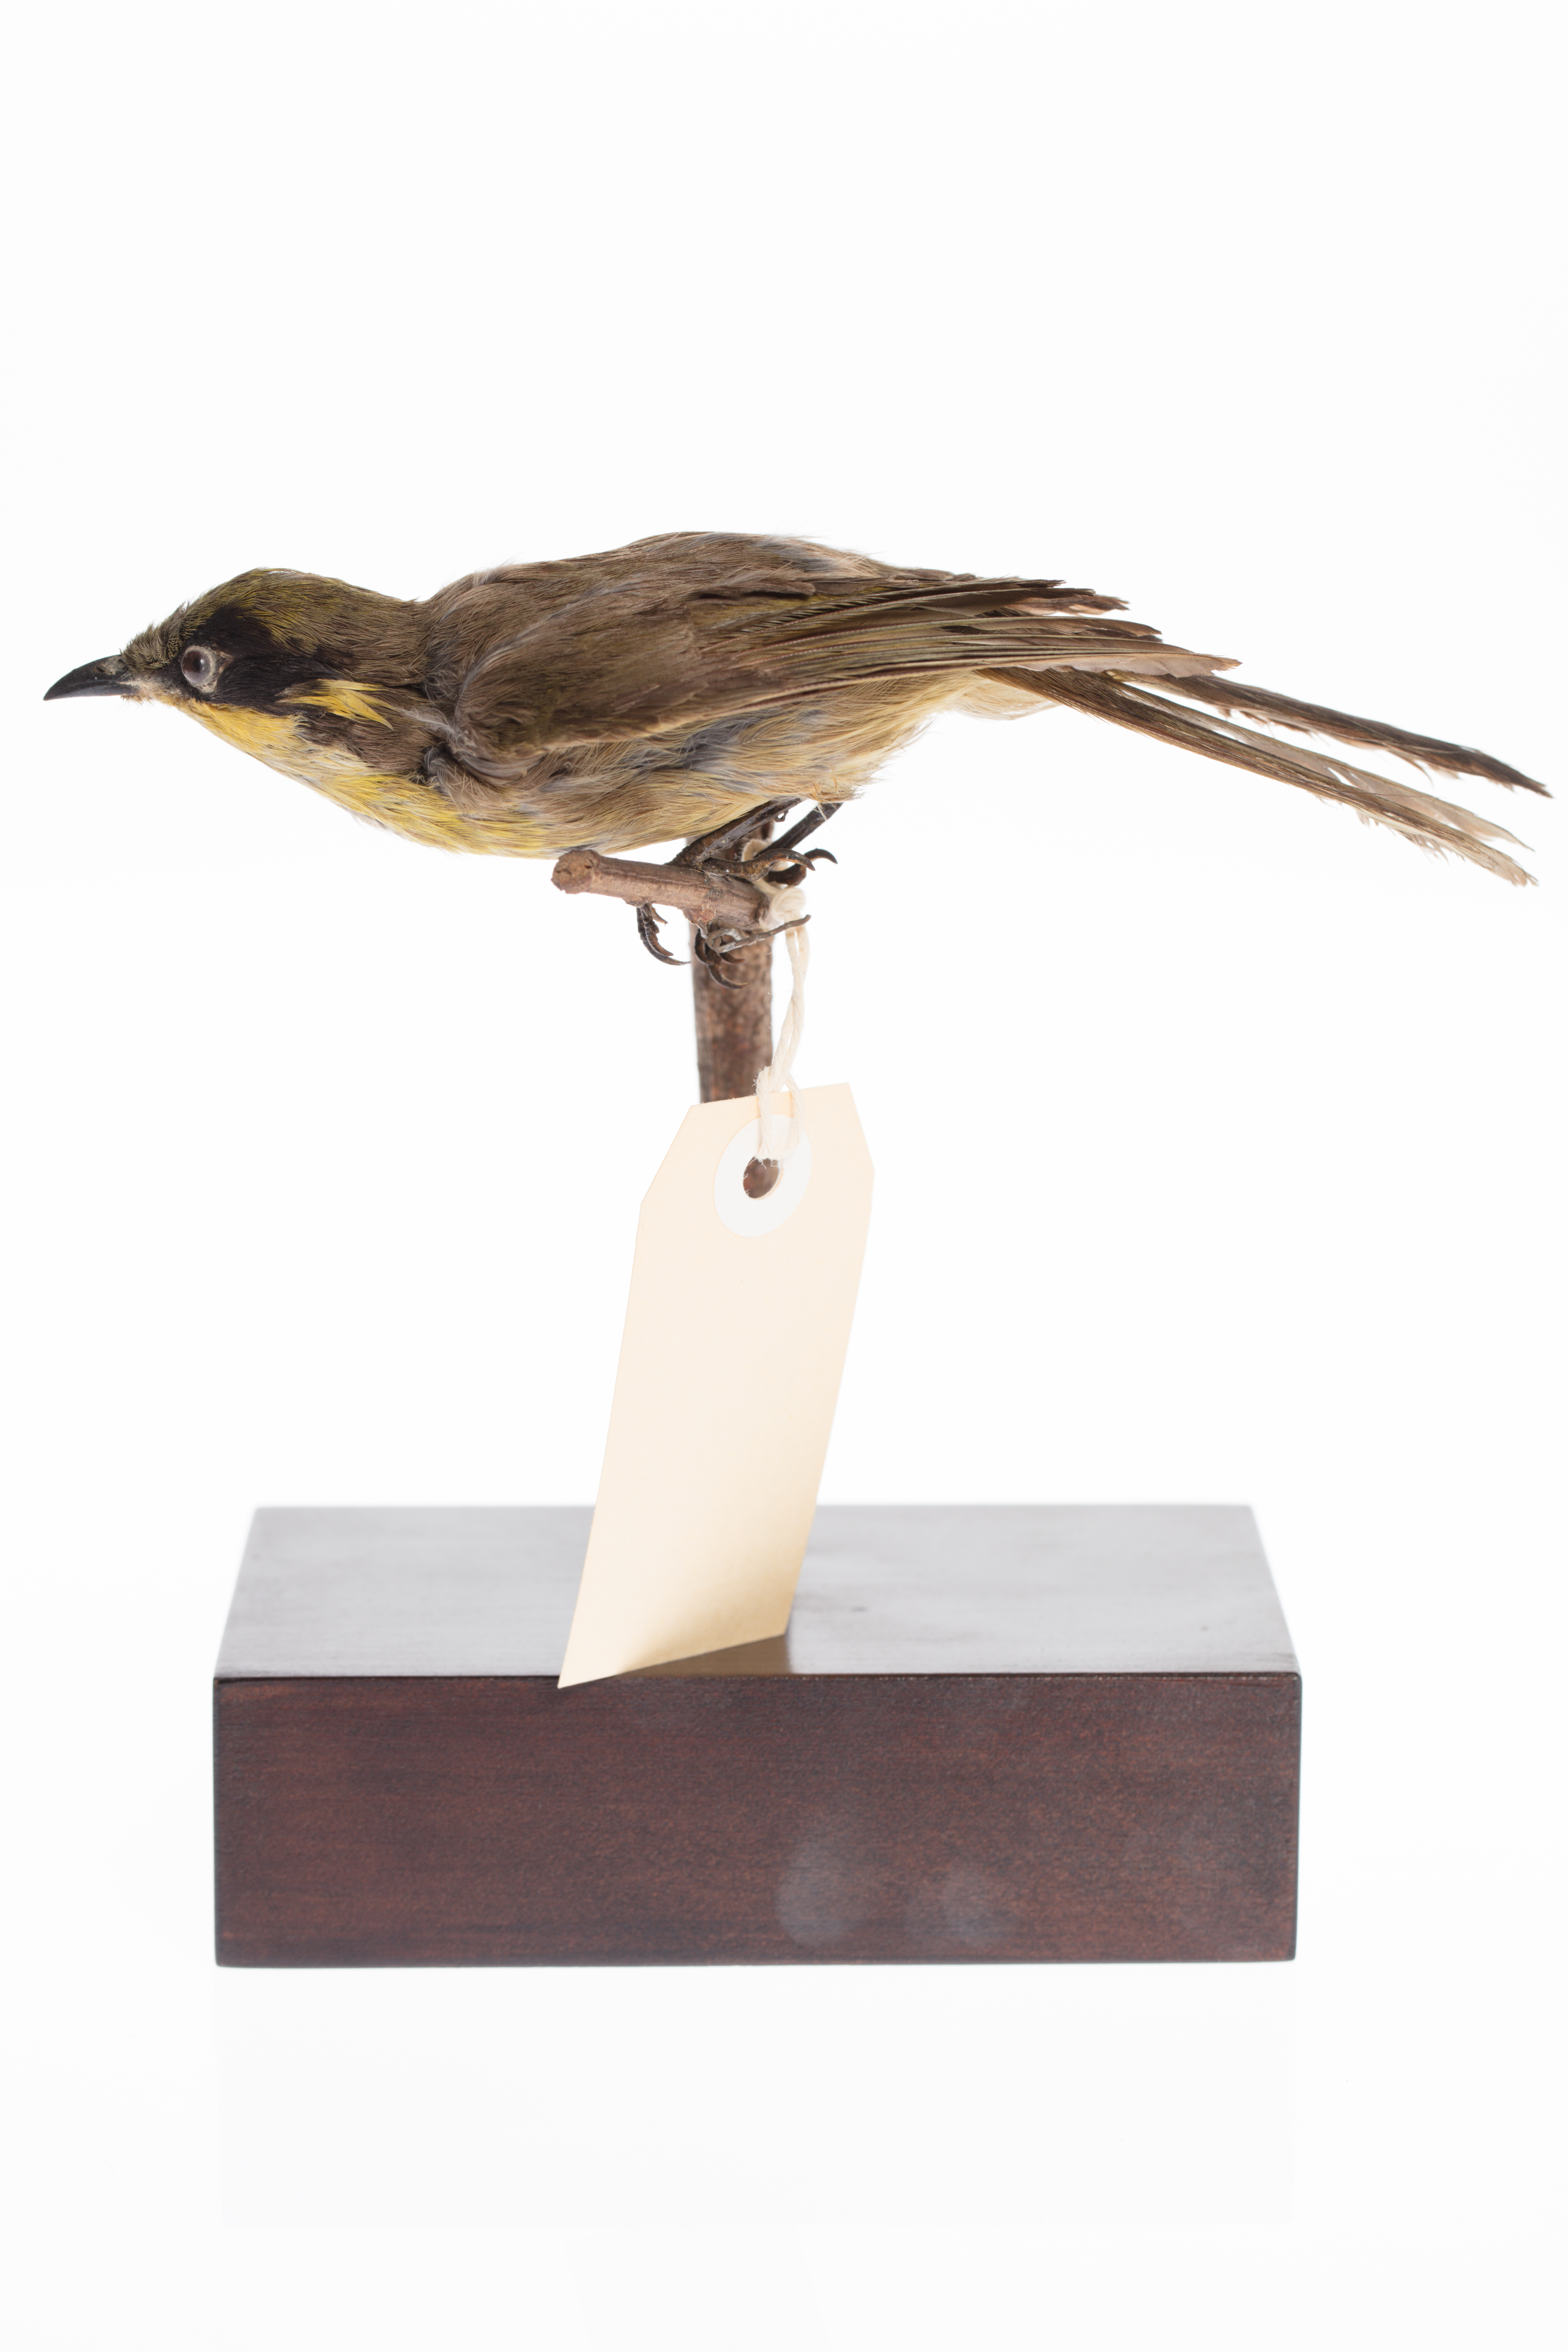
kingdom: Animalia
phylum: Chordata
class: Aves
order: Passeriformes
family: Meliphagidae
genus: Meliphaga
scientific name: Meliphaga
